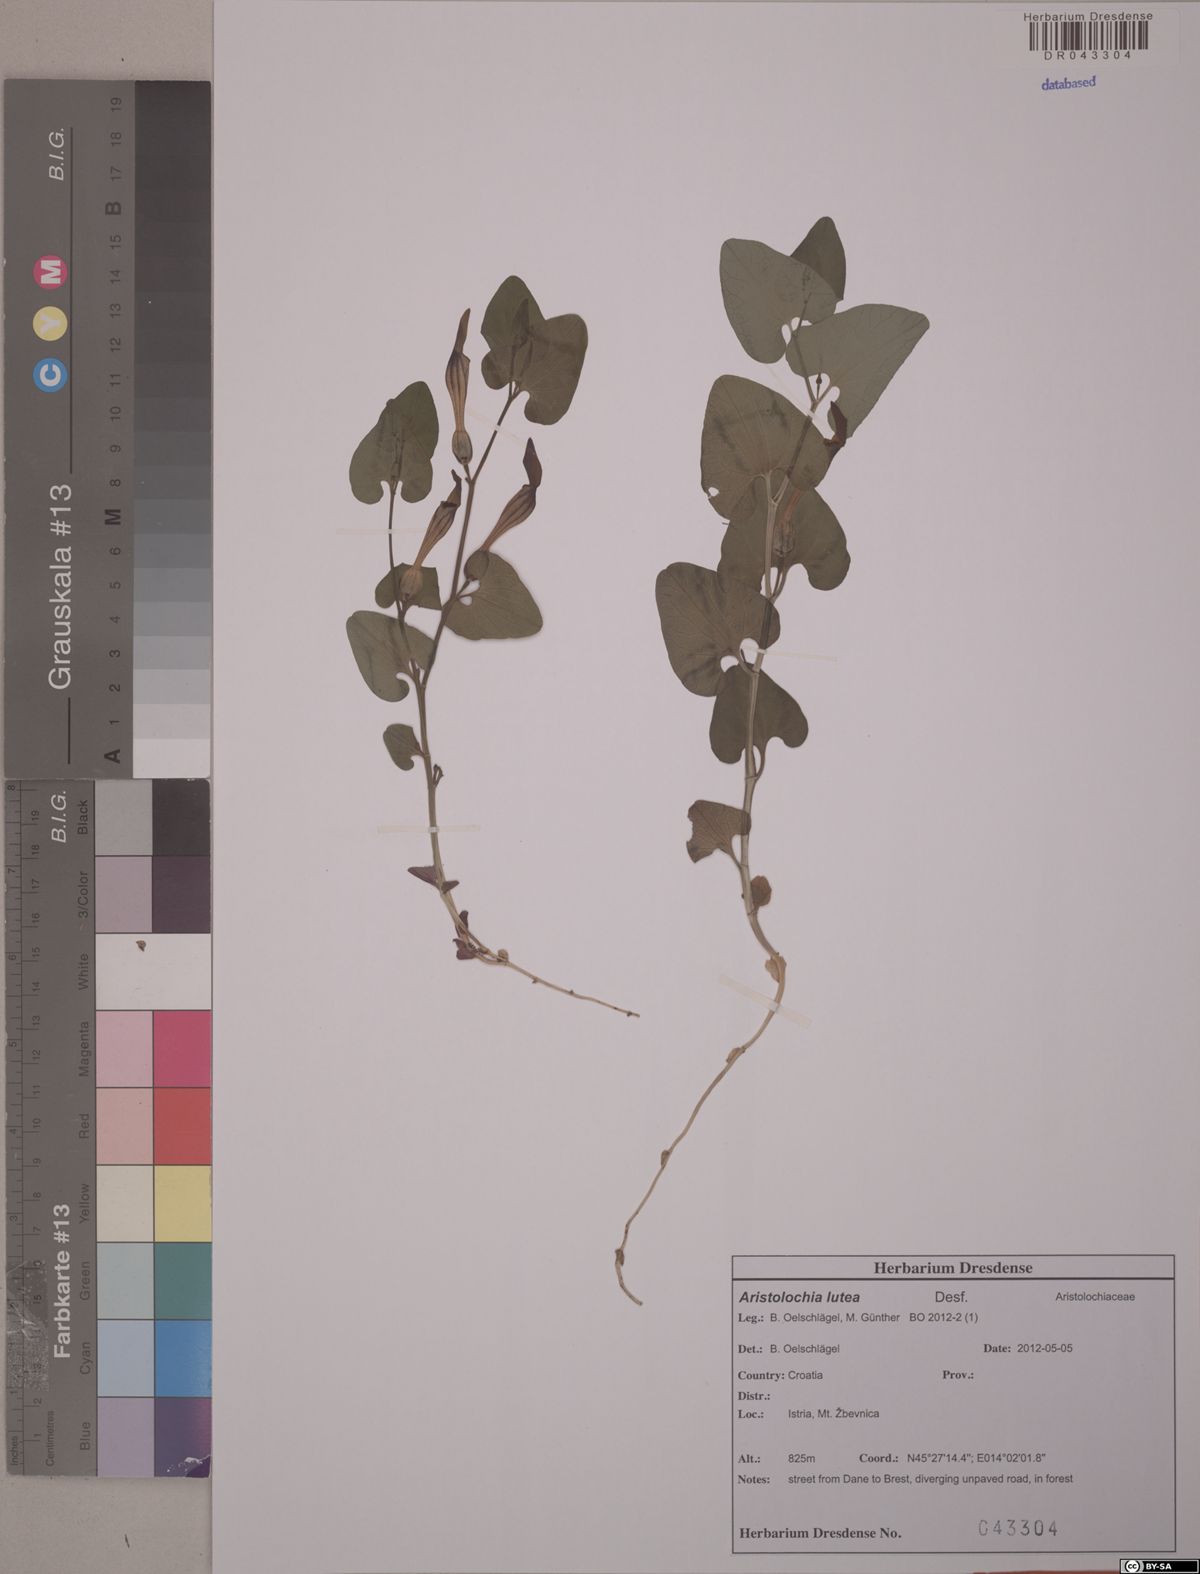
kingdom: Plantae
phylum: Tracheophyta
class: Magnoliopsida
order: Piperales
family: Aristolochiaceae
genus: Aristolochia
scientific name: Aristolochia lutea
